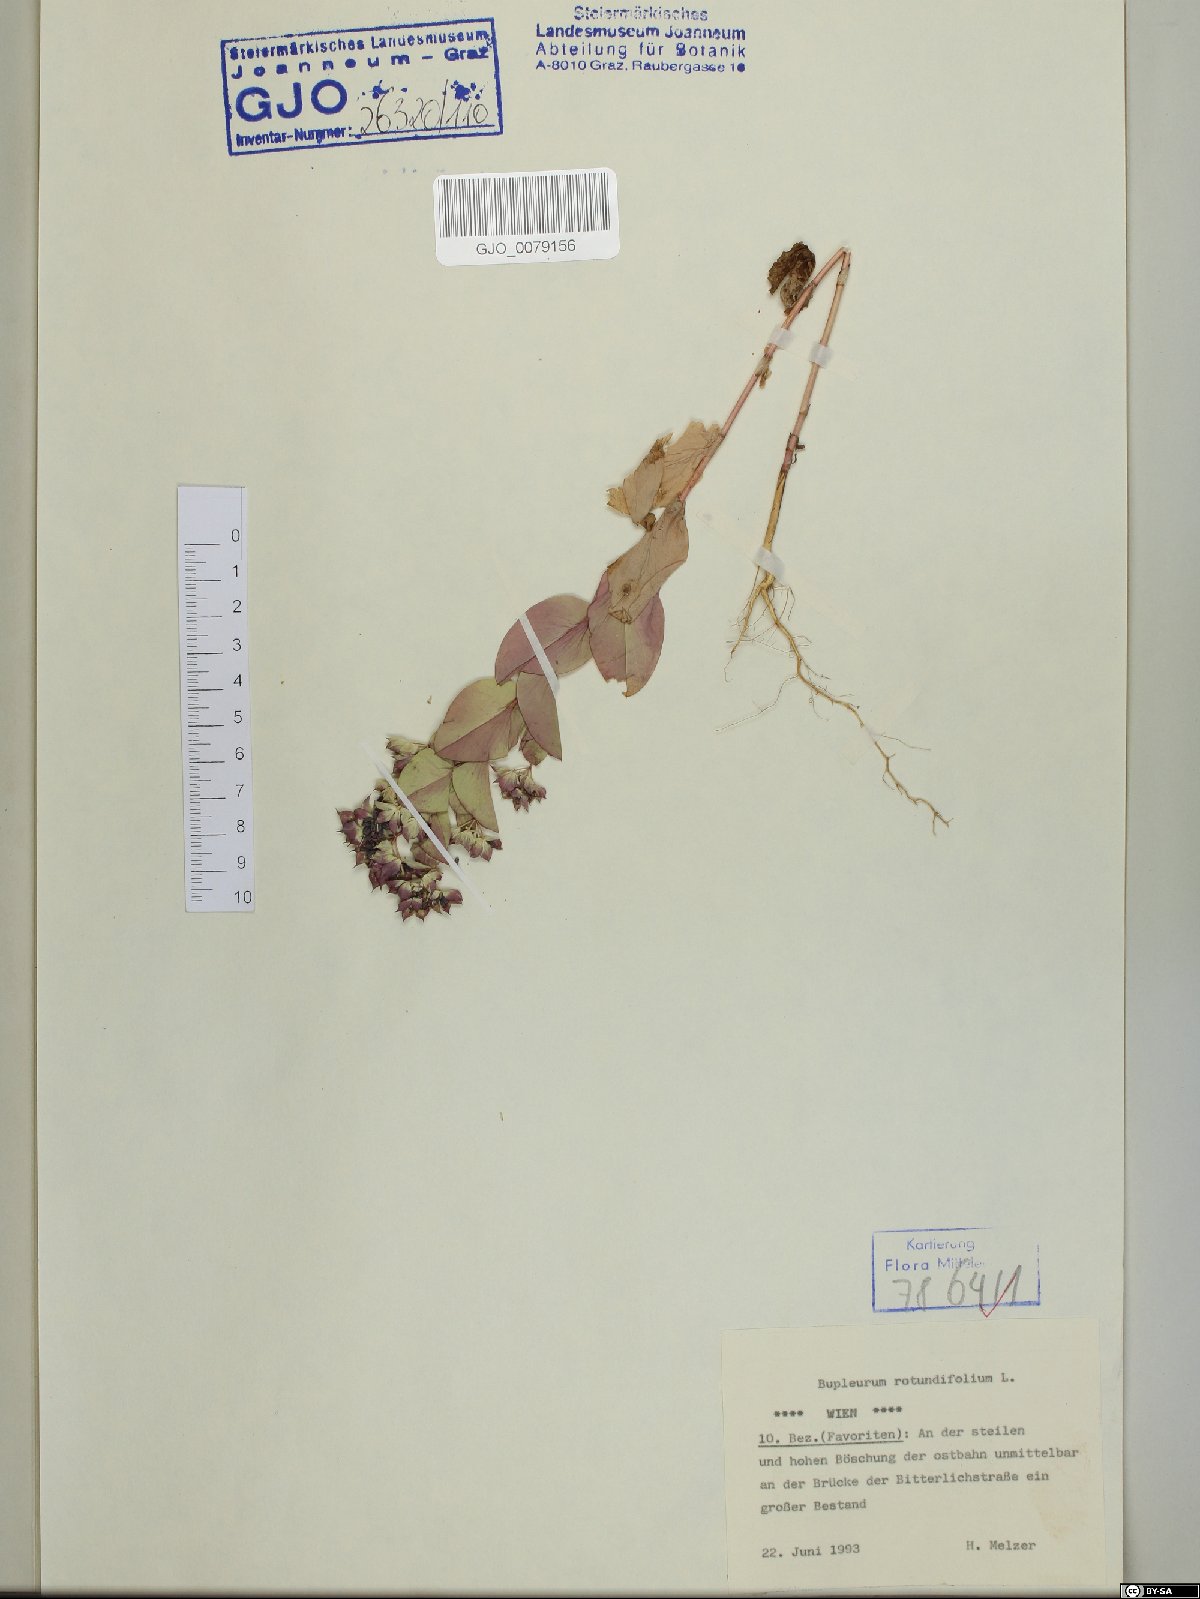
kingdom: Plantae
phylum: Tracheophyta
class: Magnoliopsida
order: Apiales
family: Apiaceae
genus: Bupleurum
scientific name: Bupleurum rotundifolium
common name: Thorow-wax
